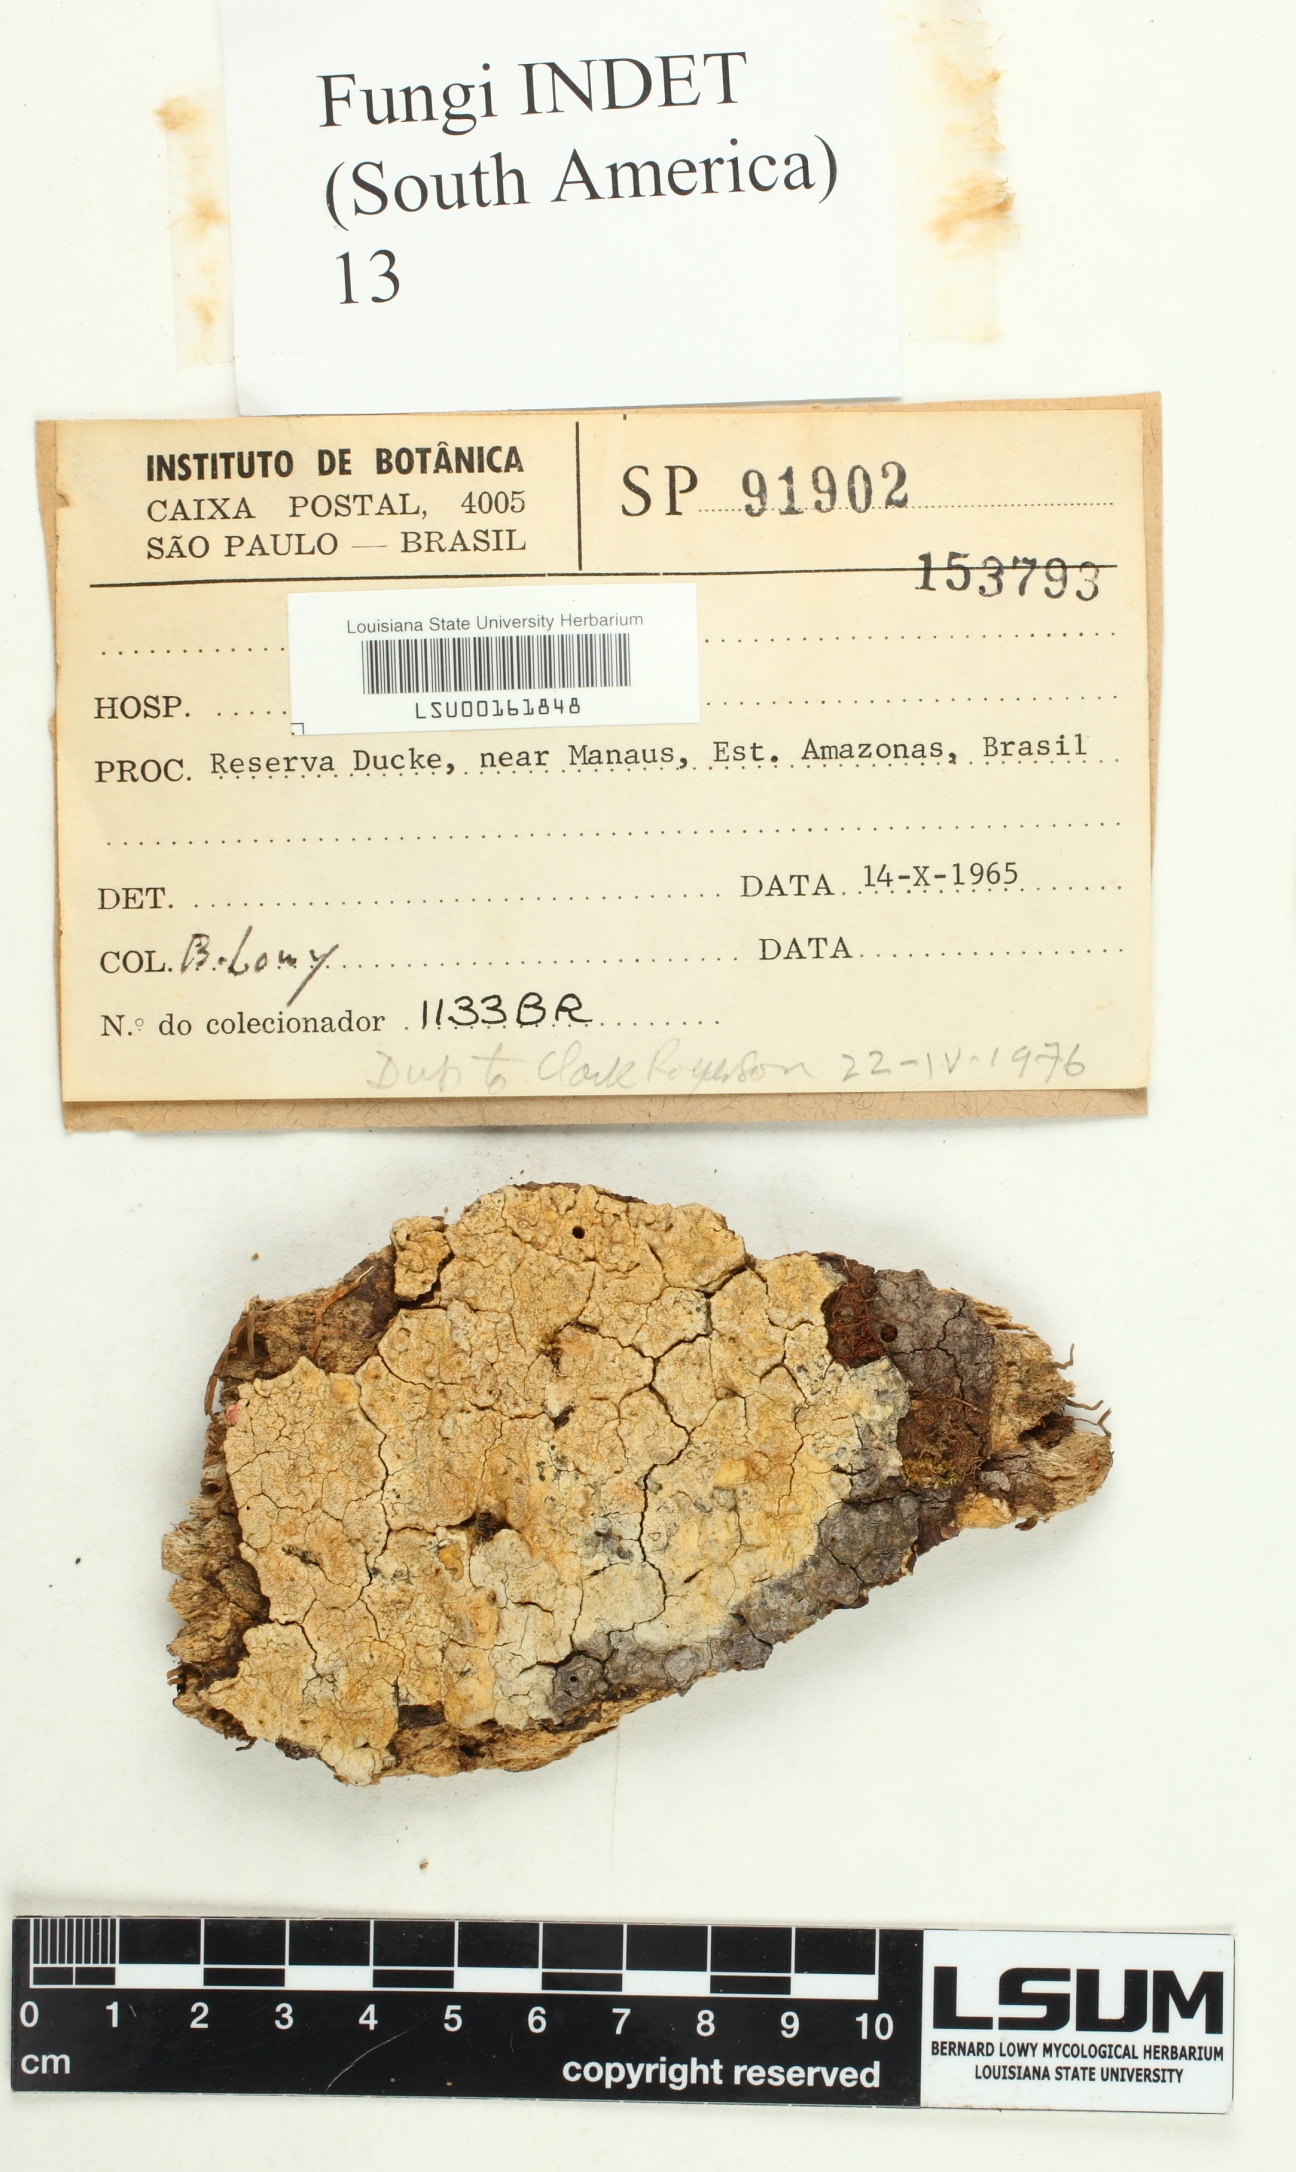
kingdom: Fungi
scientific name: Fungi
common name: Fungi
